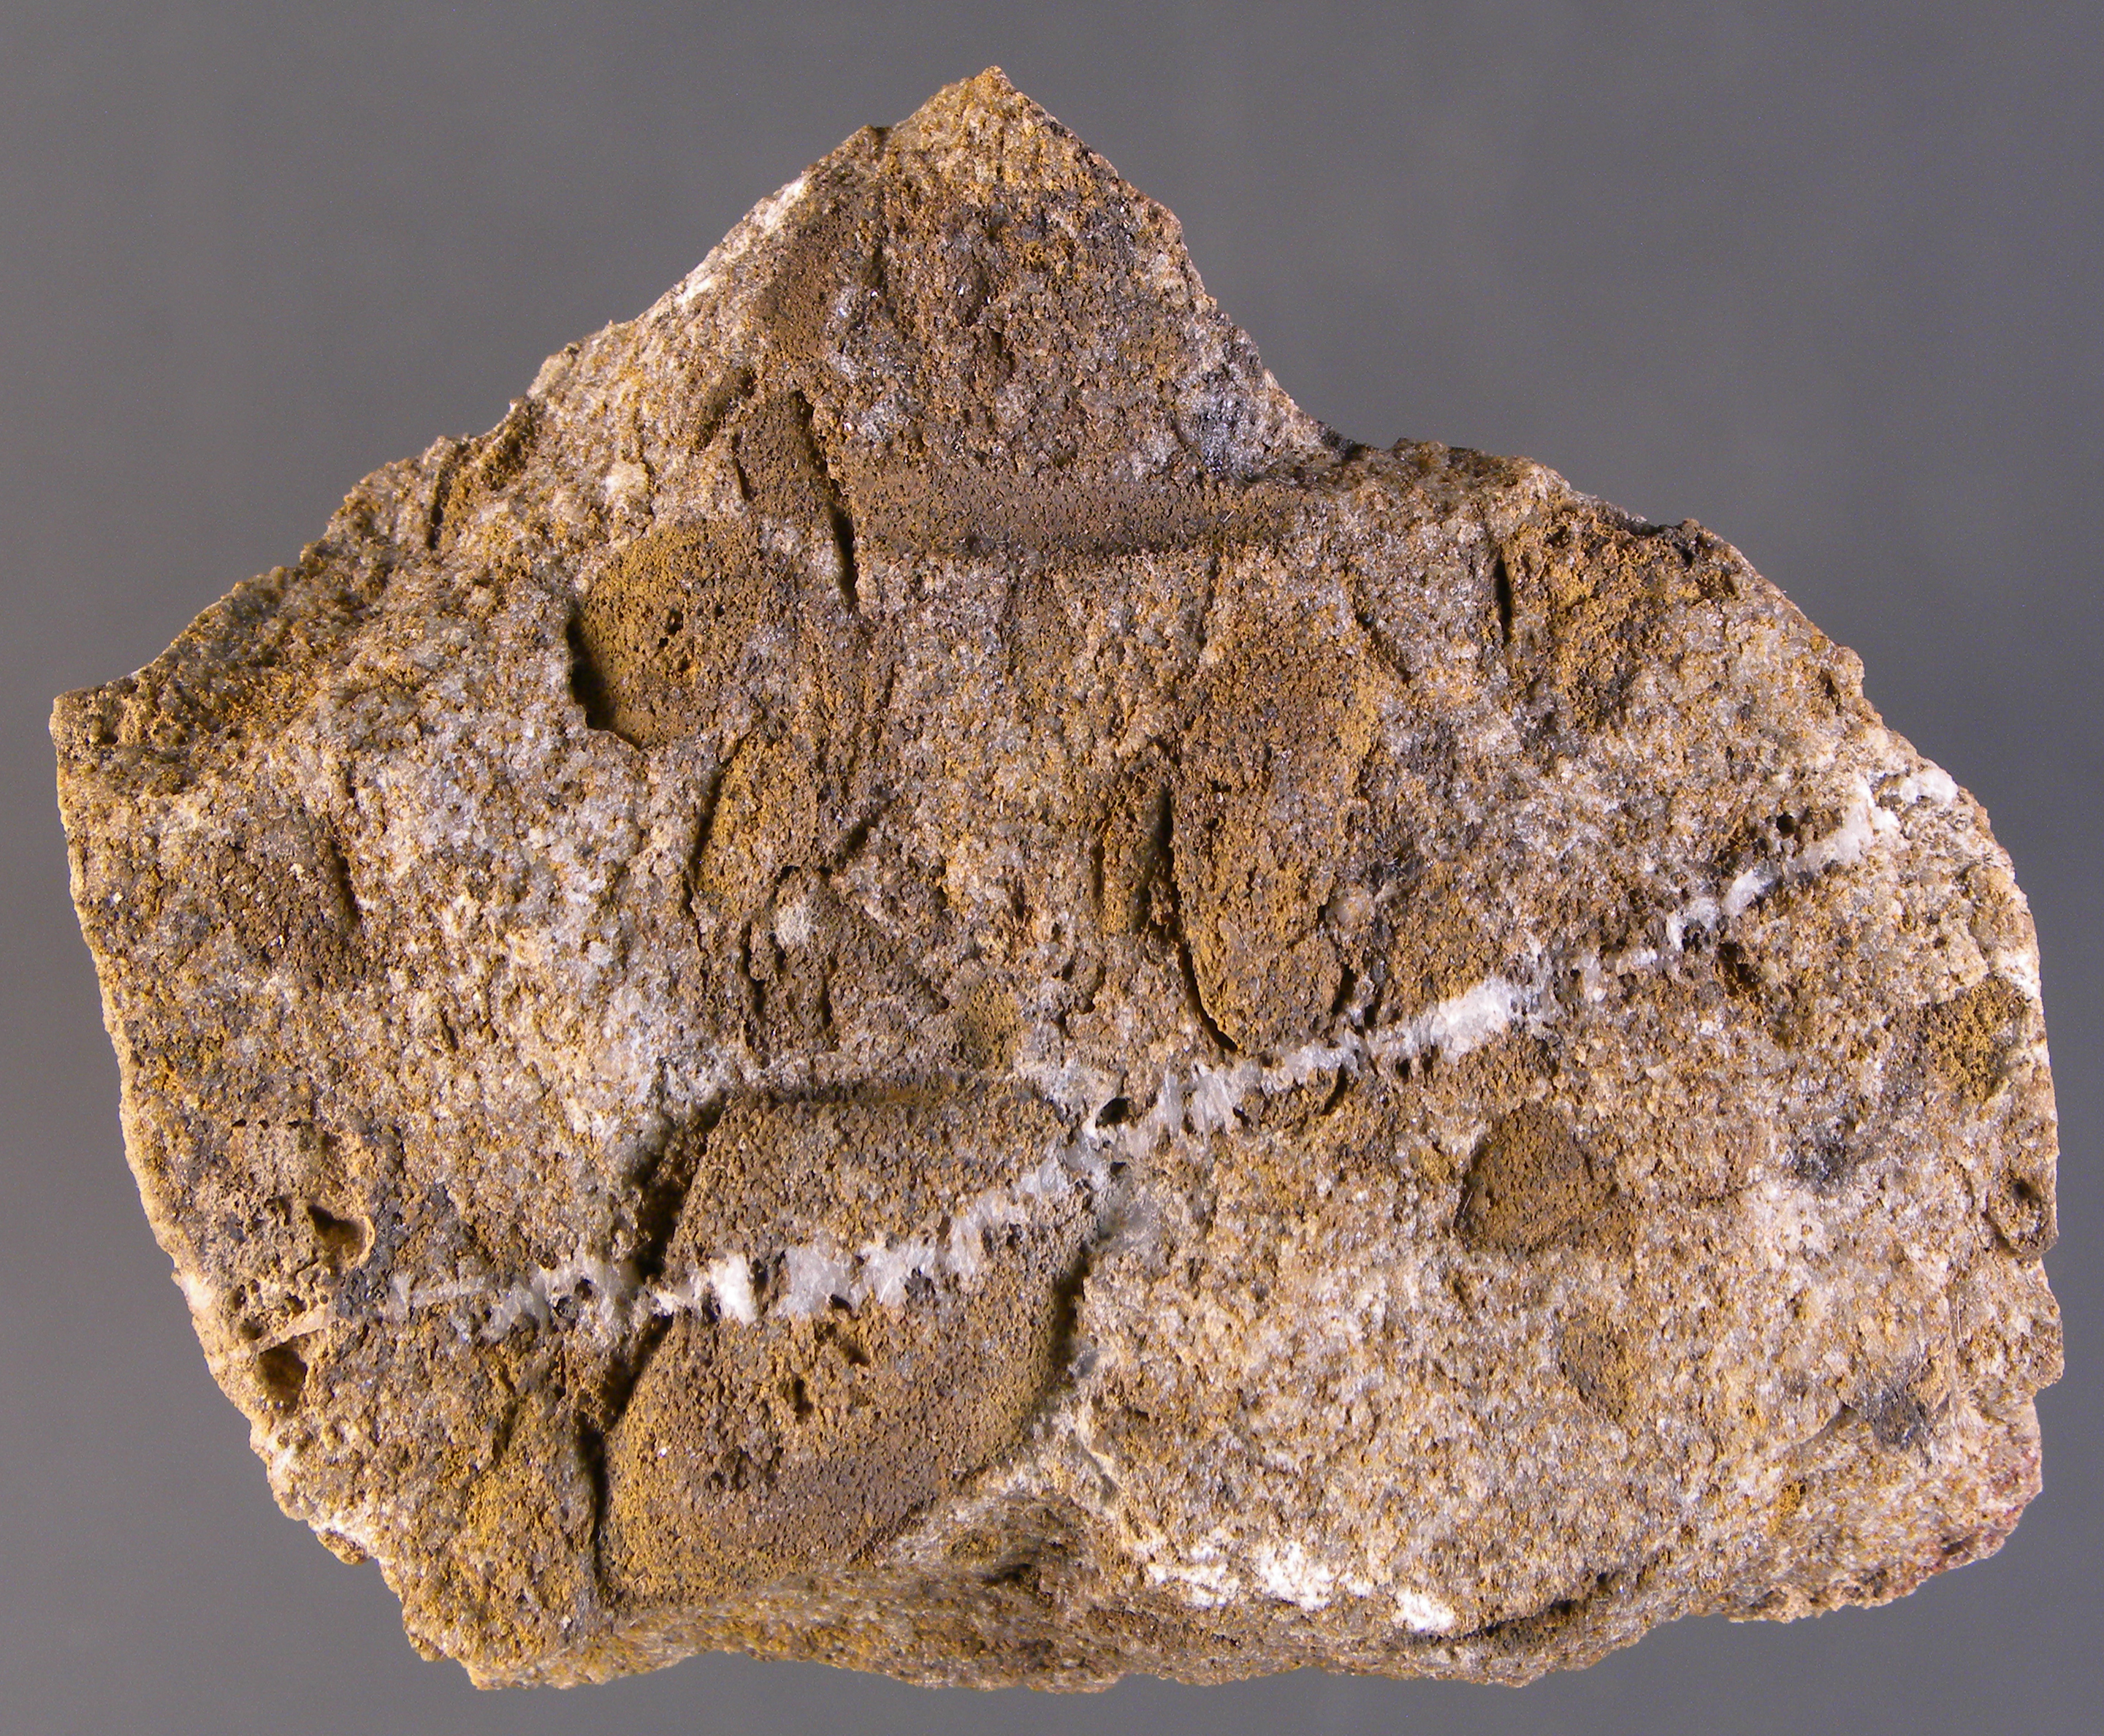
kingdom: Animalia
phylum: Mollusca
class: Bivalvia
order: Nuculanida
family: Nuculanidae
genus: Phestia
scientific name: Phestia
